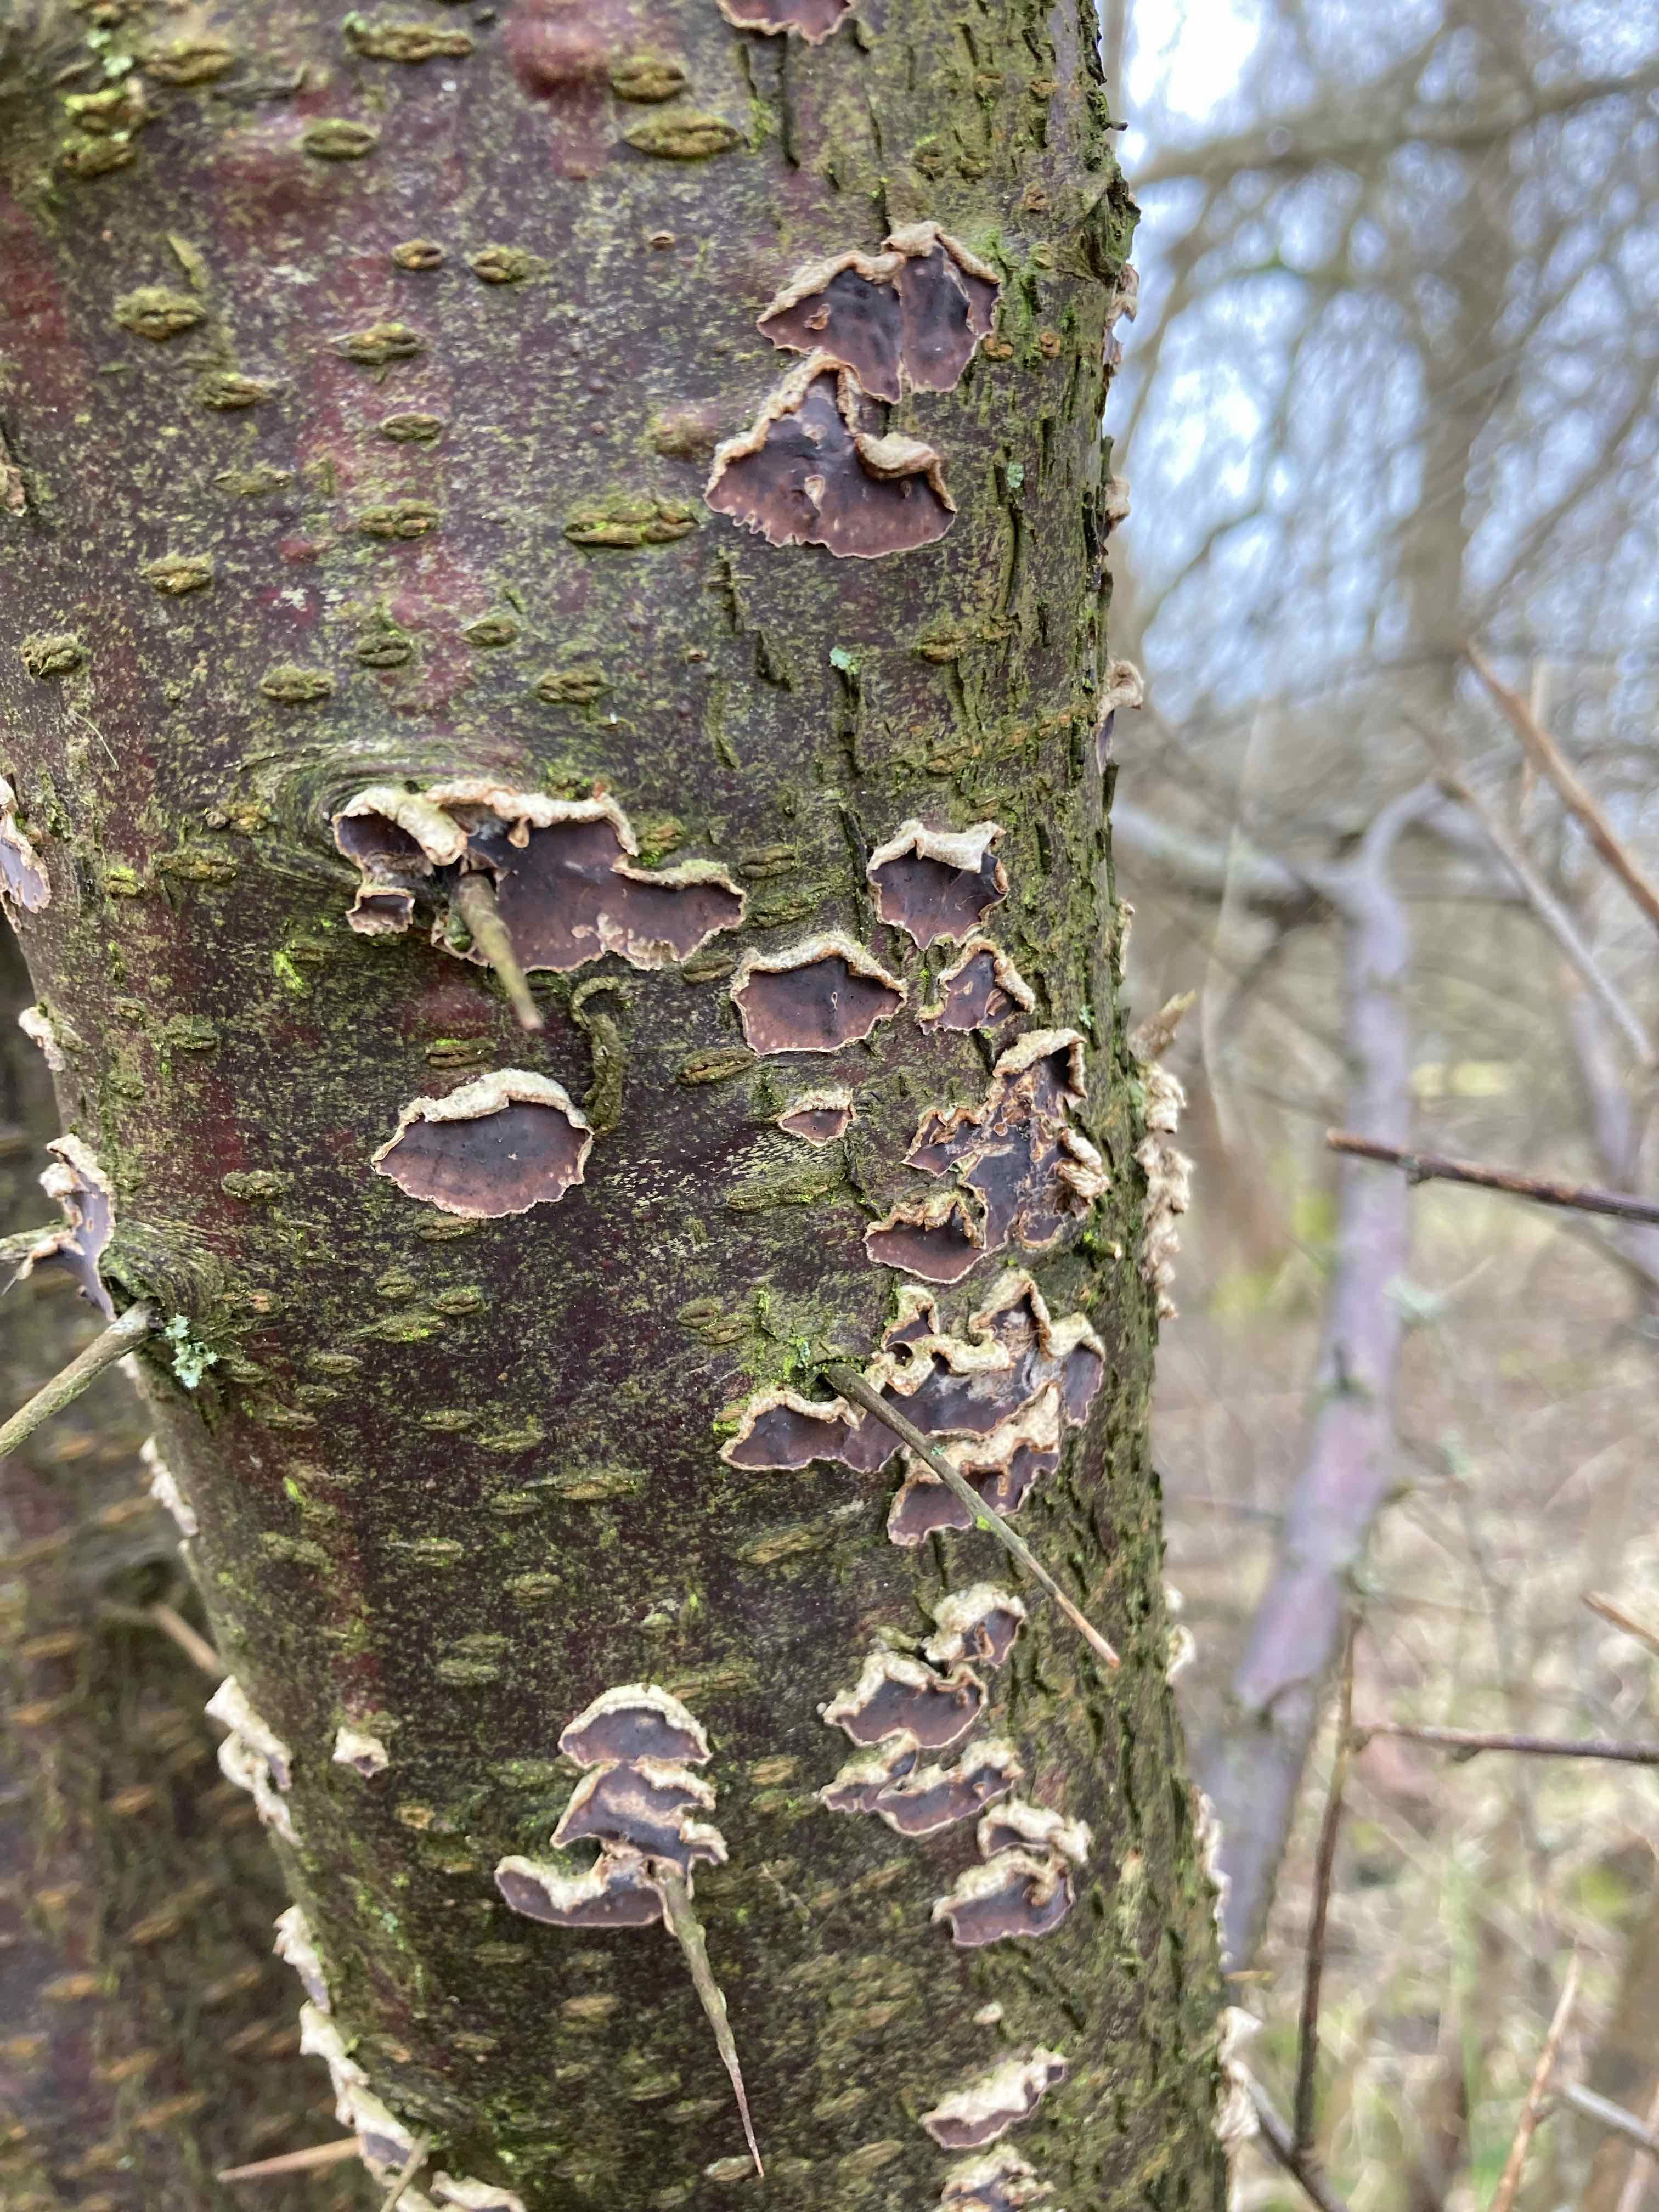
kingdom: Fungi
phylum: Basidiomycota
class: Agaricomycetes
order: Agaricales
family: Cyphellaceae
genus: Chondrostereum
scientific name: Chondrostereum purpureum
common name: purpurlædersvamp
